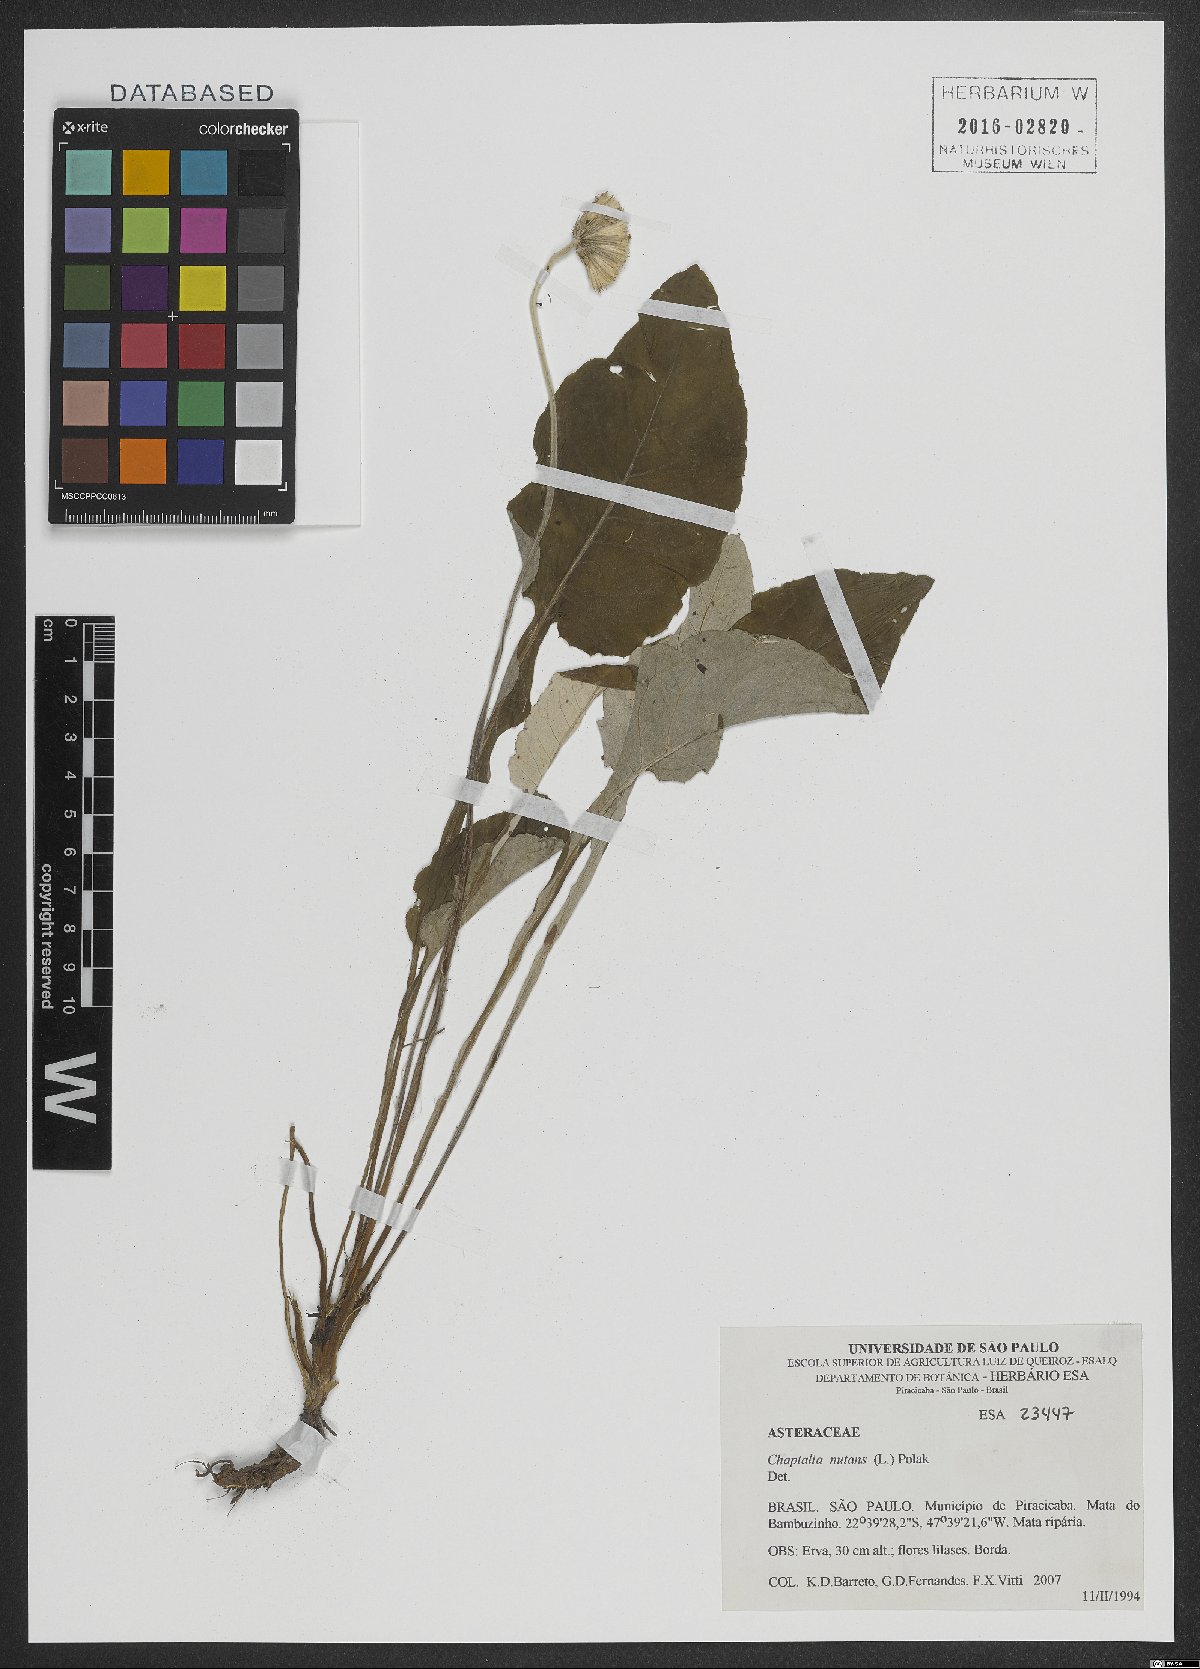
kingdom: Plantae
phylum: Tracheophyta
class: Magnoliopsida
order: Asterales
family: Asteraceae
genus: Chaptalia
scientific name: Chaptalia nutans
